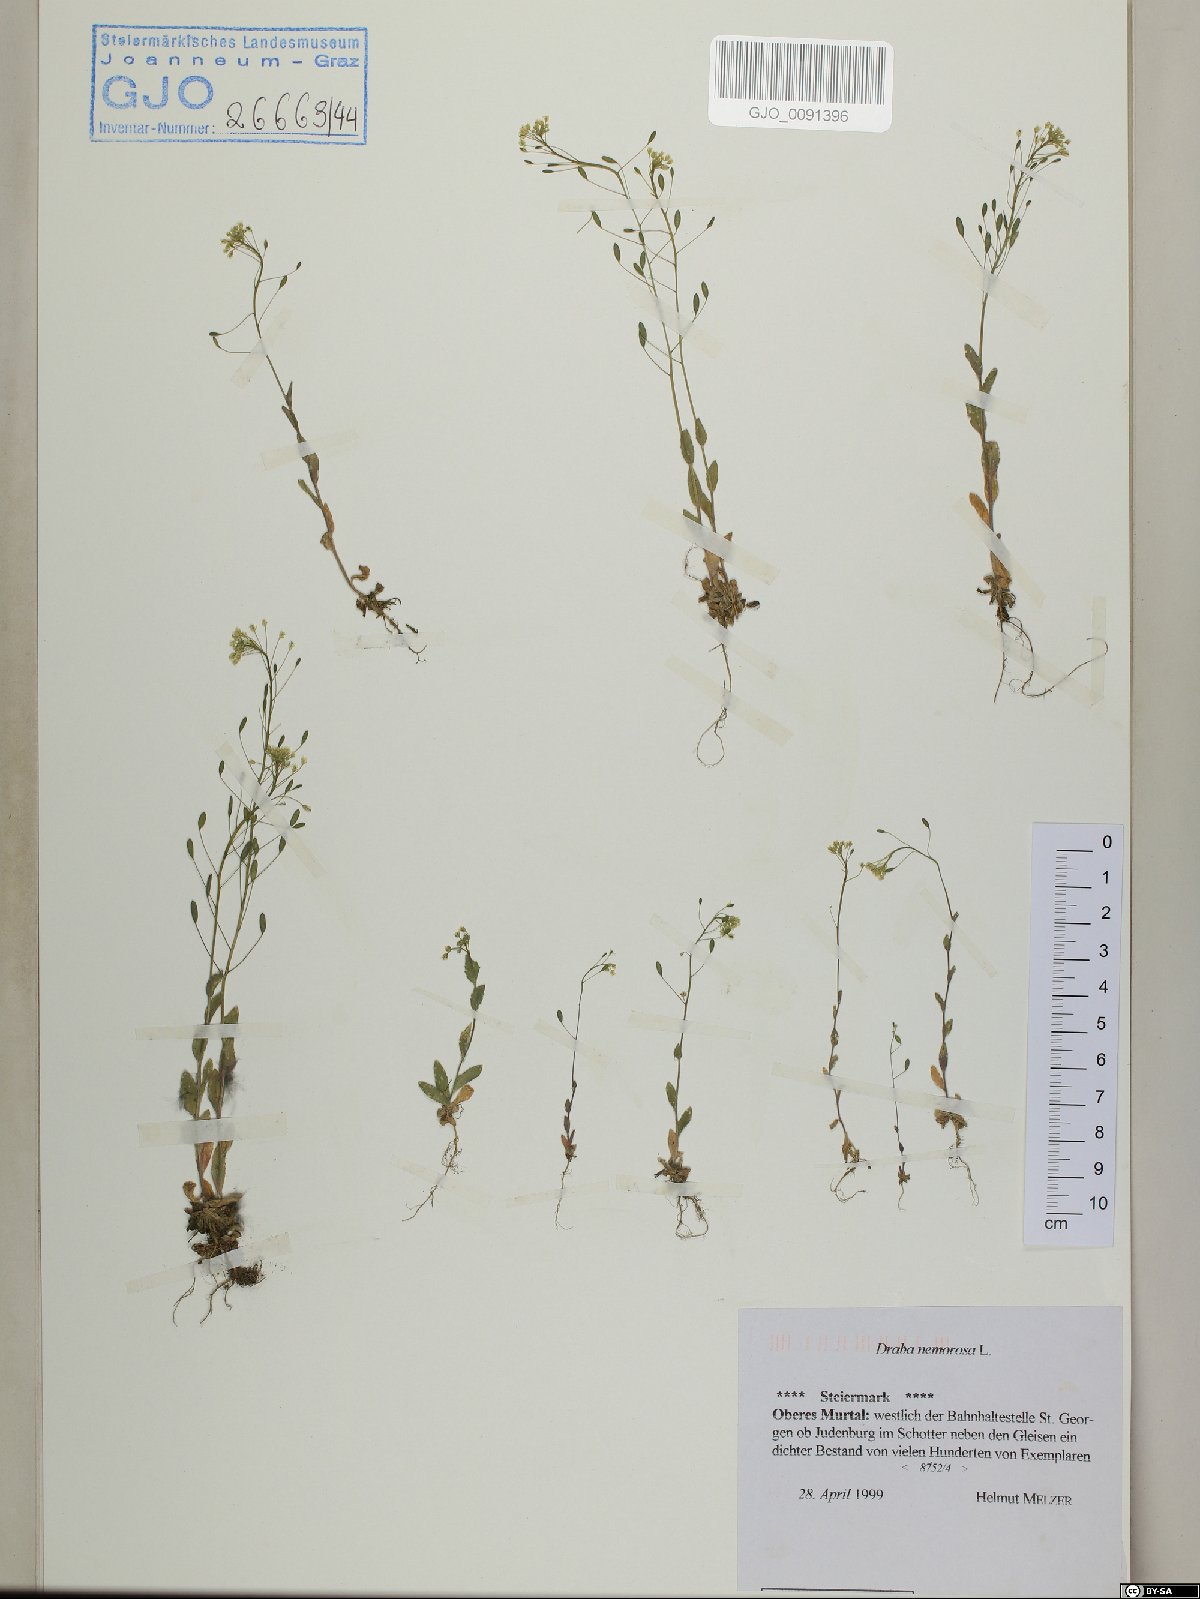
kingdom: Plantae
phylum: Tracheophyta
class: Magnoliopsida
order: Brassicales
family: Brassicaceae
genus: Draba
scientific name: Draba nemorosa
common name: Wood whitlow-grass
